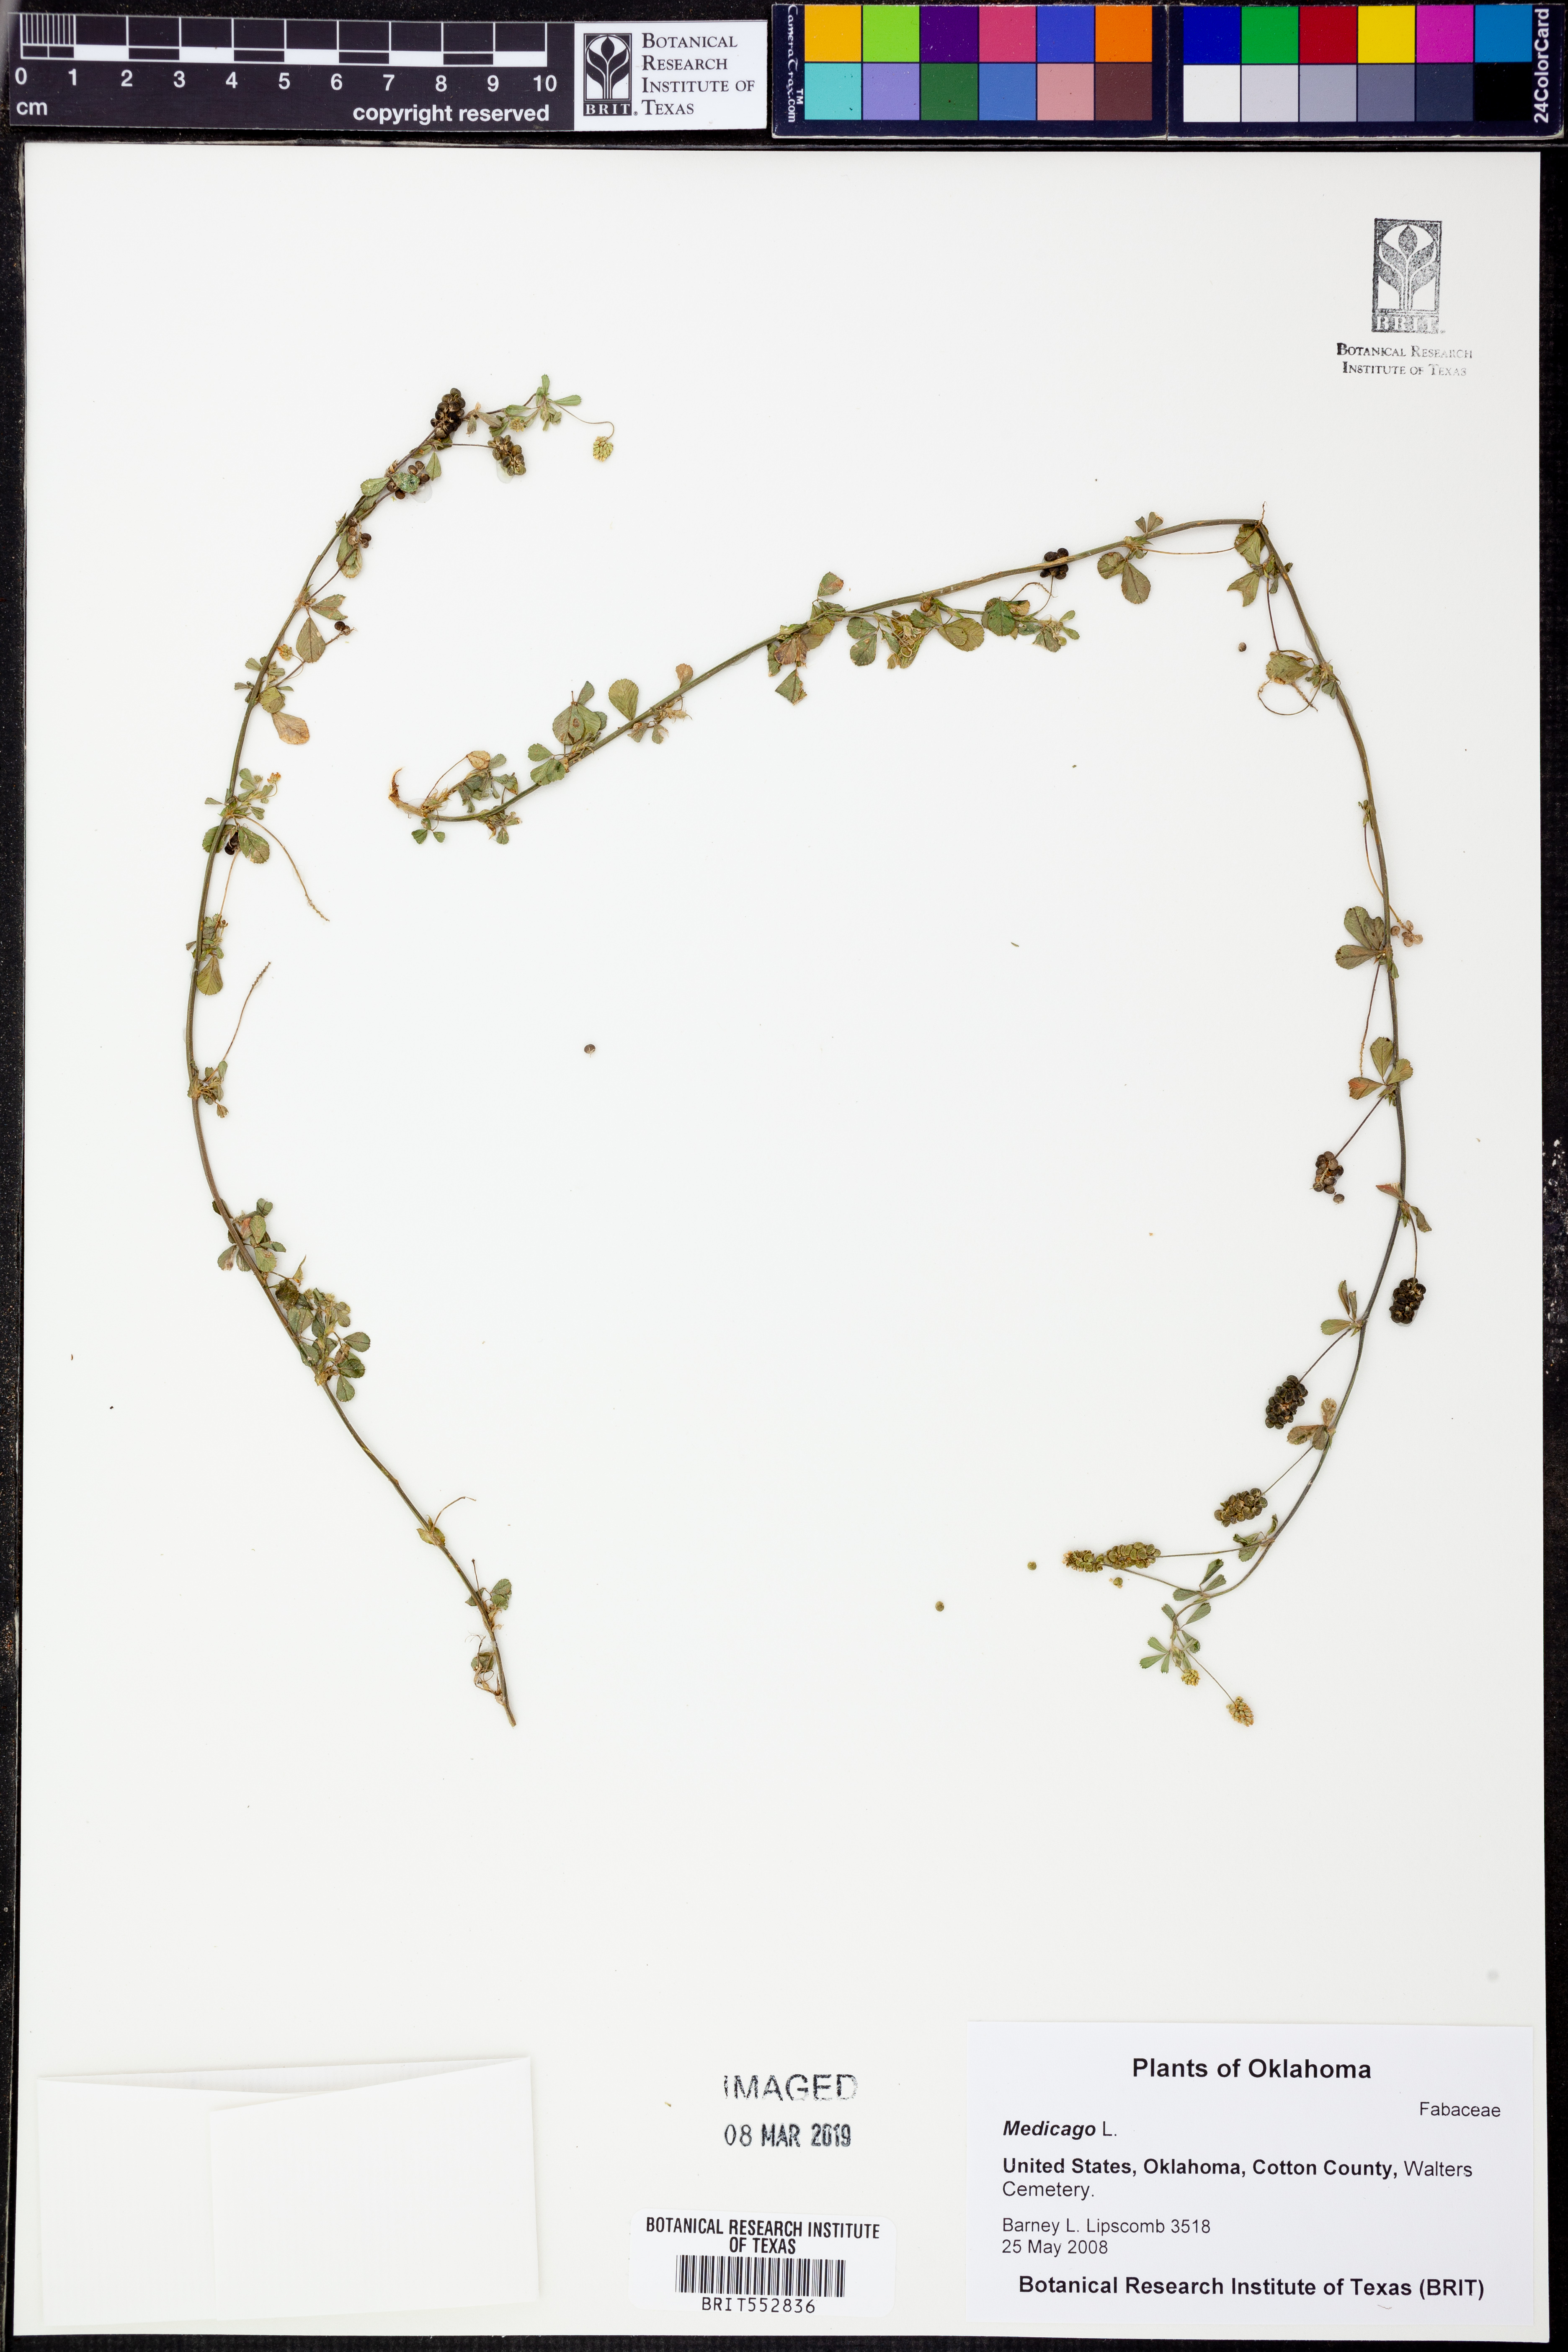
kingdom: Plantae
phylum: Tracheophyta
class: Magnoliopsida
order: Fabales
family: Fabaceae
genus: Medicago
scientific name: Medicago
